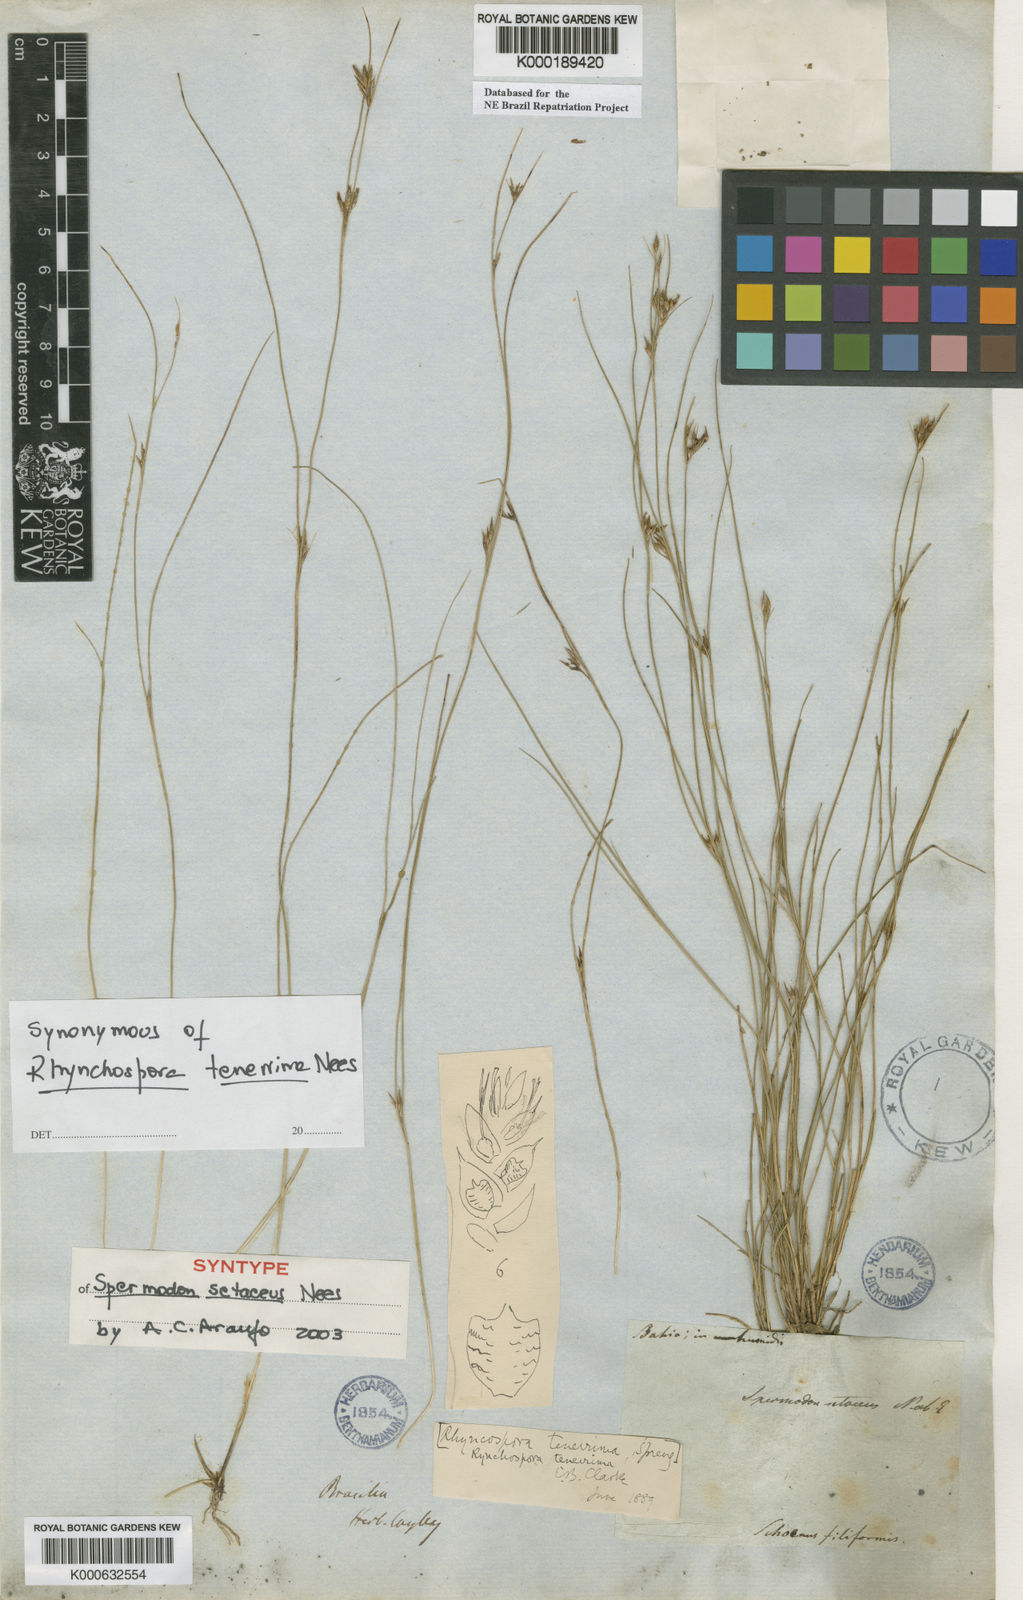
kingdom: Plantae
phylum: Tracheophyta
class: Liliopsida
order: Poales
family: Cyperaceae
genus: Rhynchospora
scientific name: Rhynchospora tenerrima
